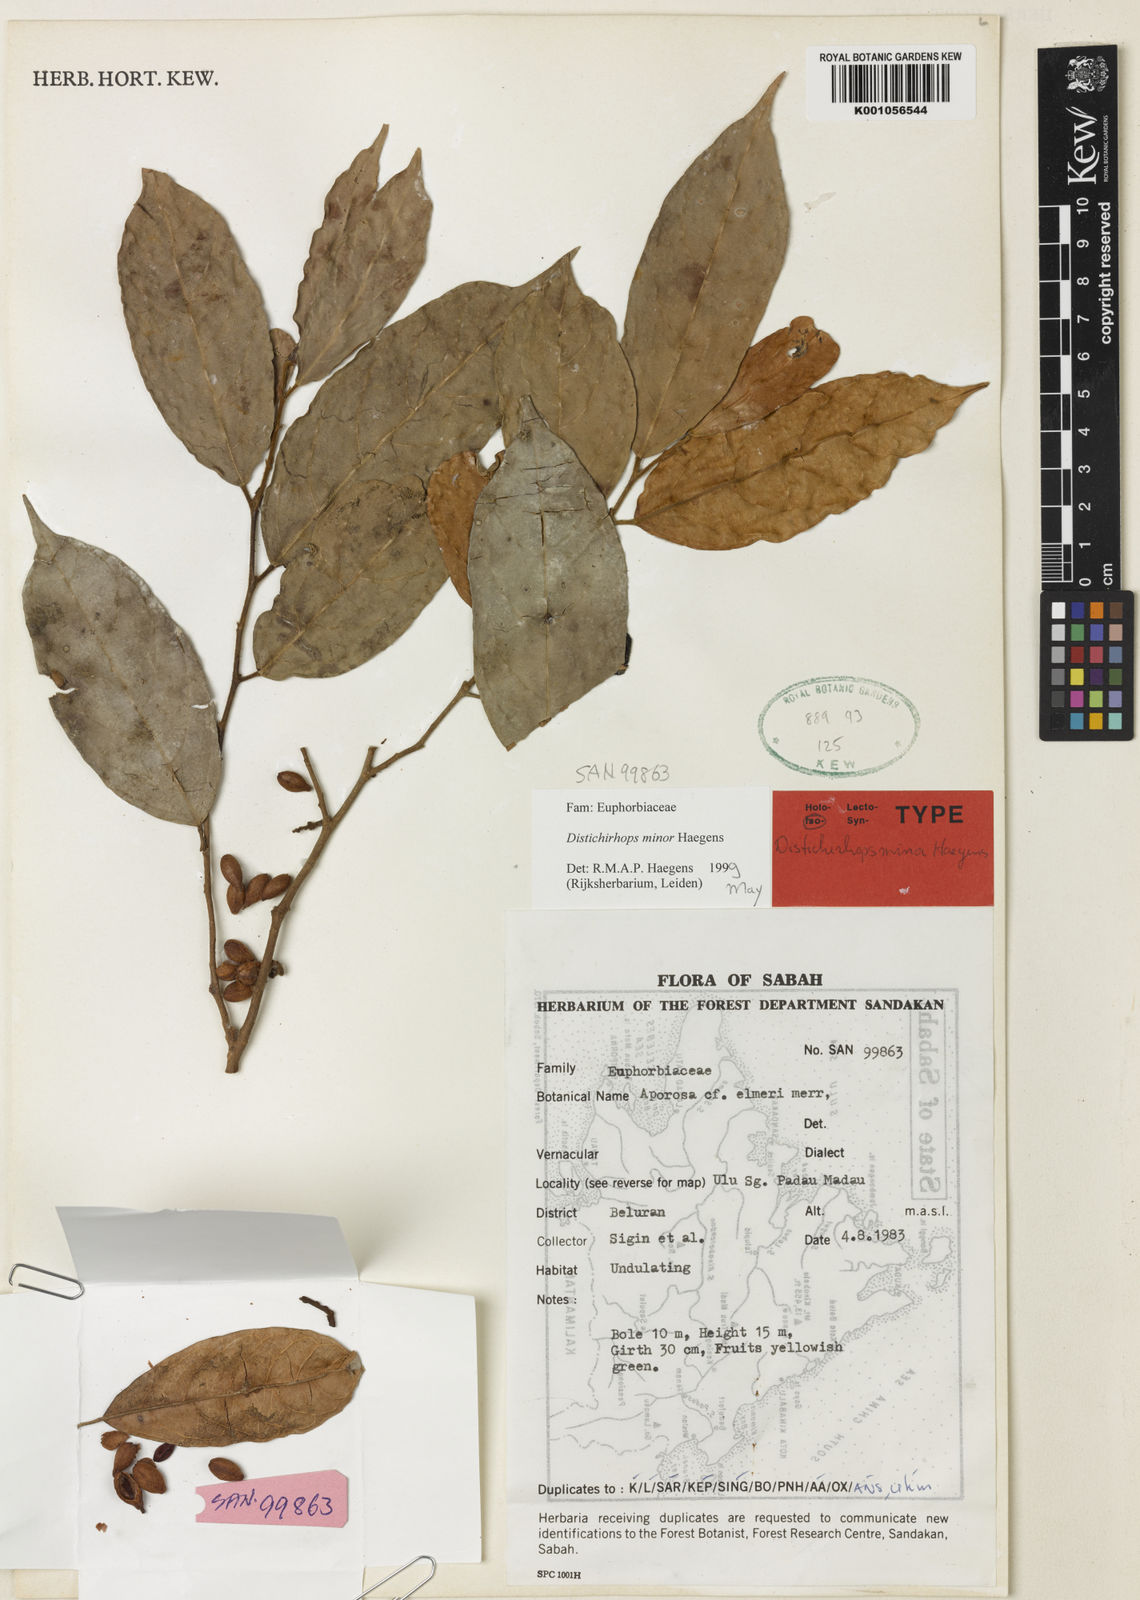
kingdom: Plantae
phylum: Tracheophyta
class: Magnoliopsida
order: Malpighiales
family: Phyllanthaceae
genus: Distichirhops
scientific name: Distichirhops minor
